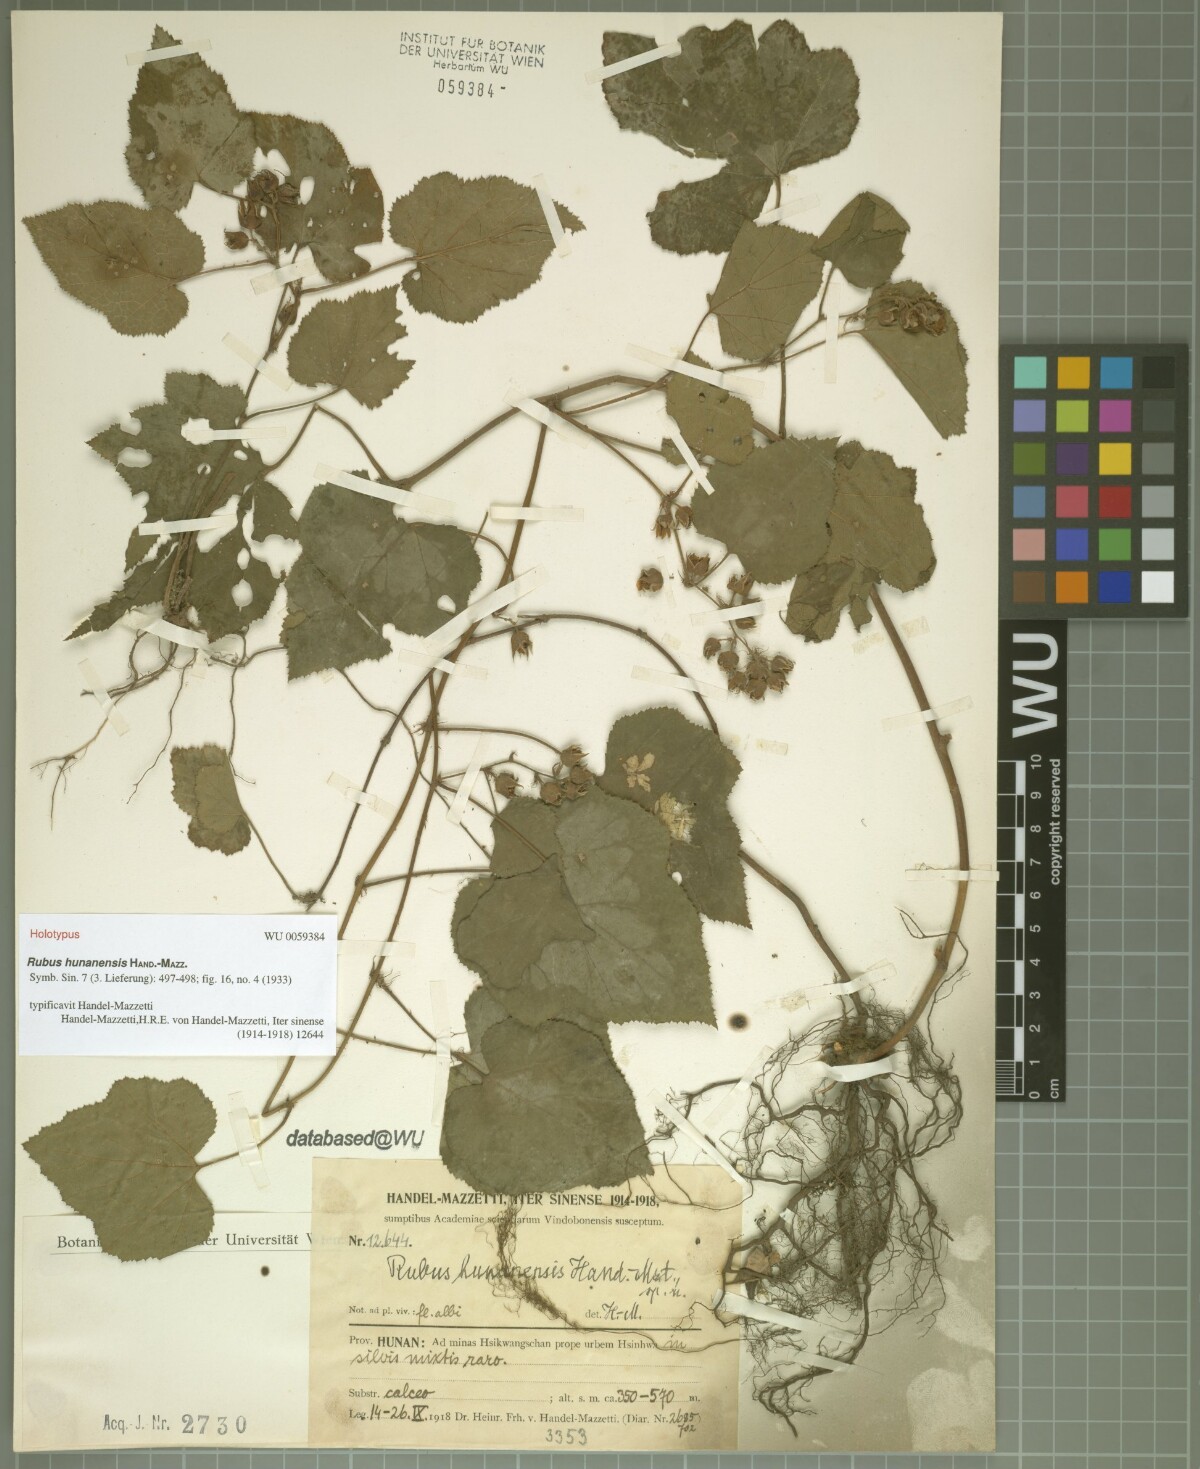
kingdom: Plantae
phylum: Tracheophyta
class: Magnoliopsida
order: Rosales
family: Rosaceae
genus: Rubus
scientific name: Rubus neohunanensis
